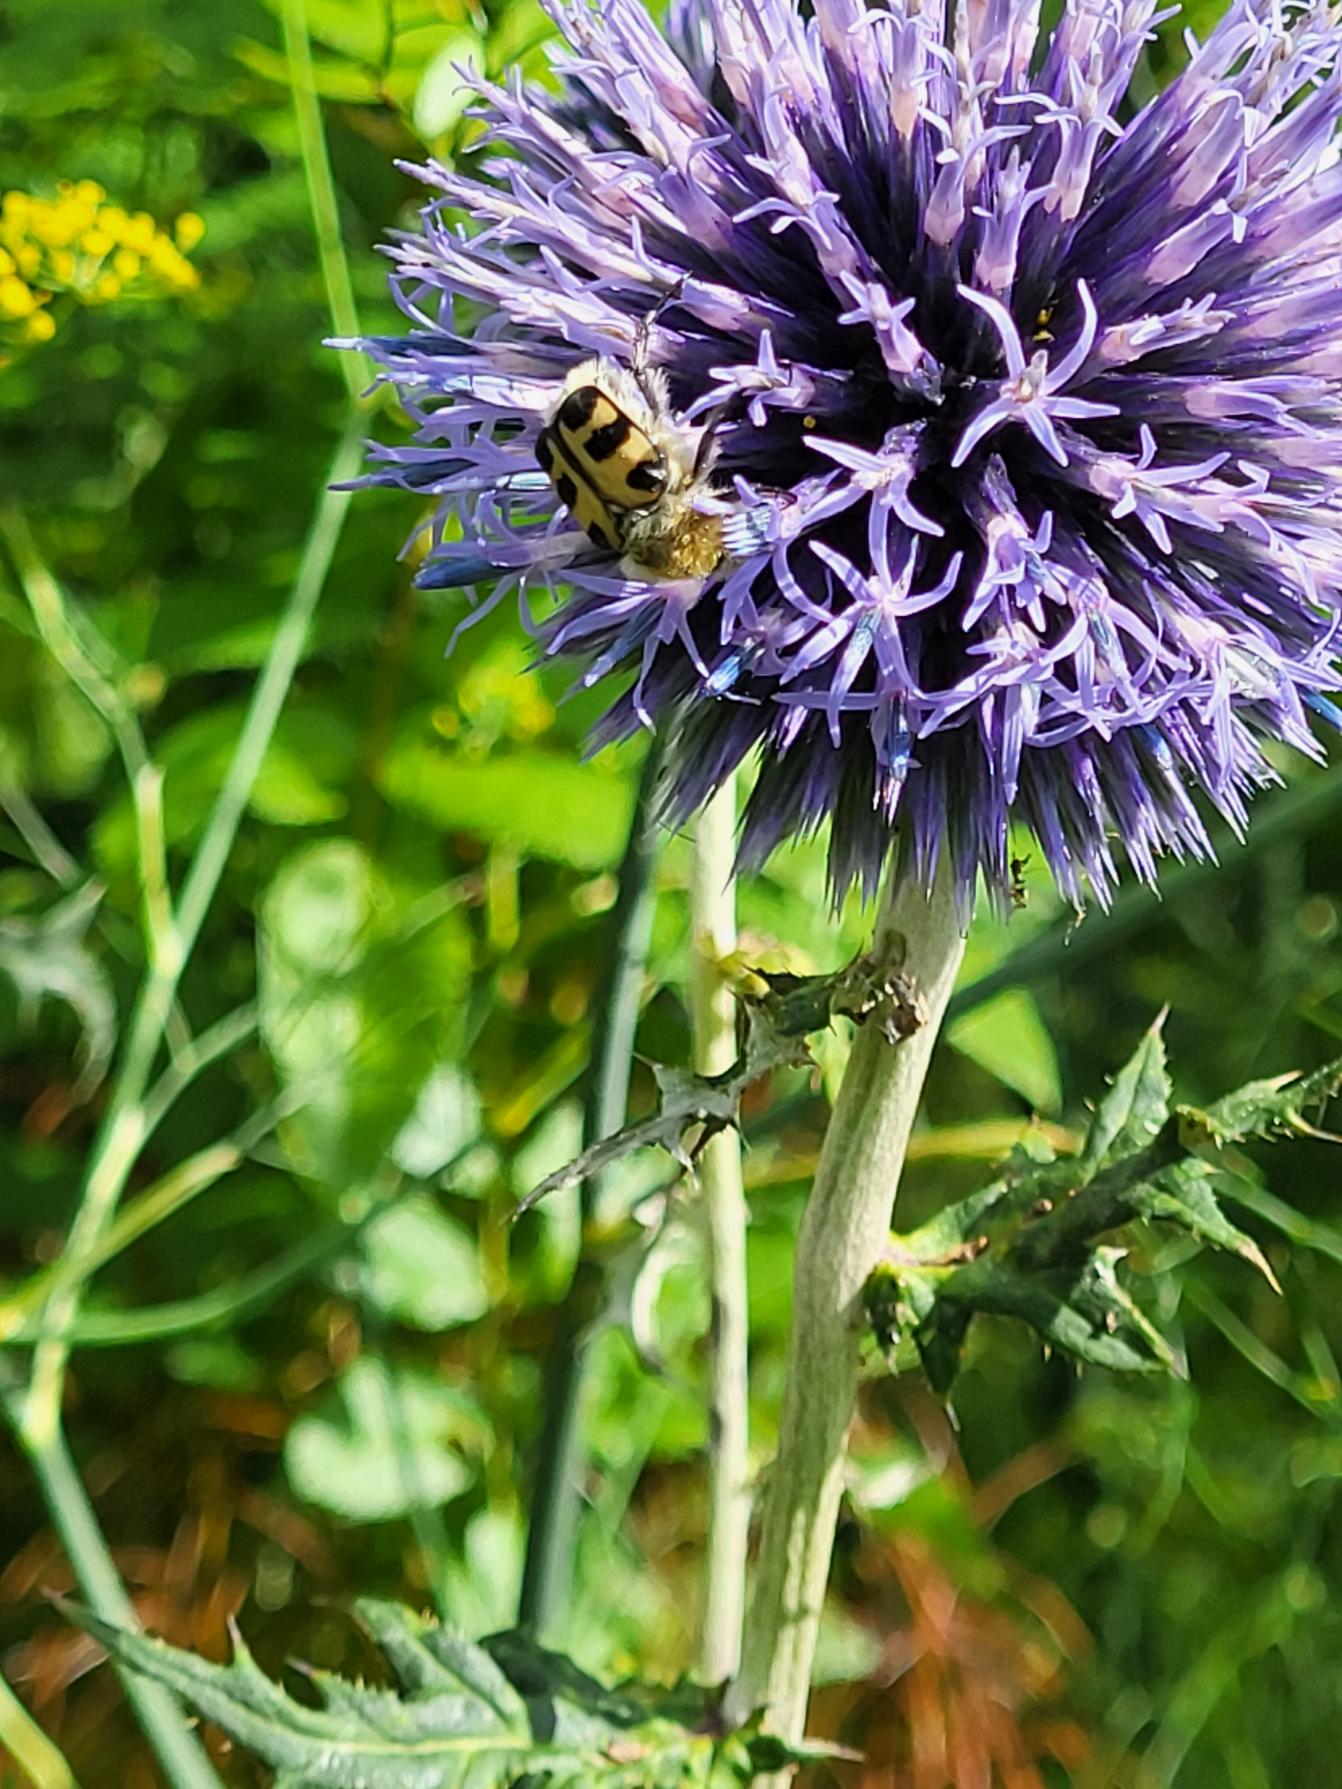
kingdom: Animalia
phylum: Arthropoda
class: Insecta
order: Coleoptera
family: Scarabaeidae
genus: Trichius
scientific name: Trichius gallicus
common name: Lille humlebille
